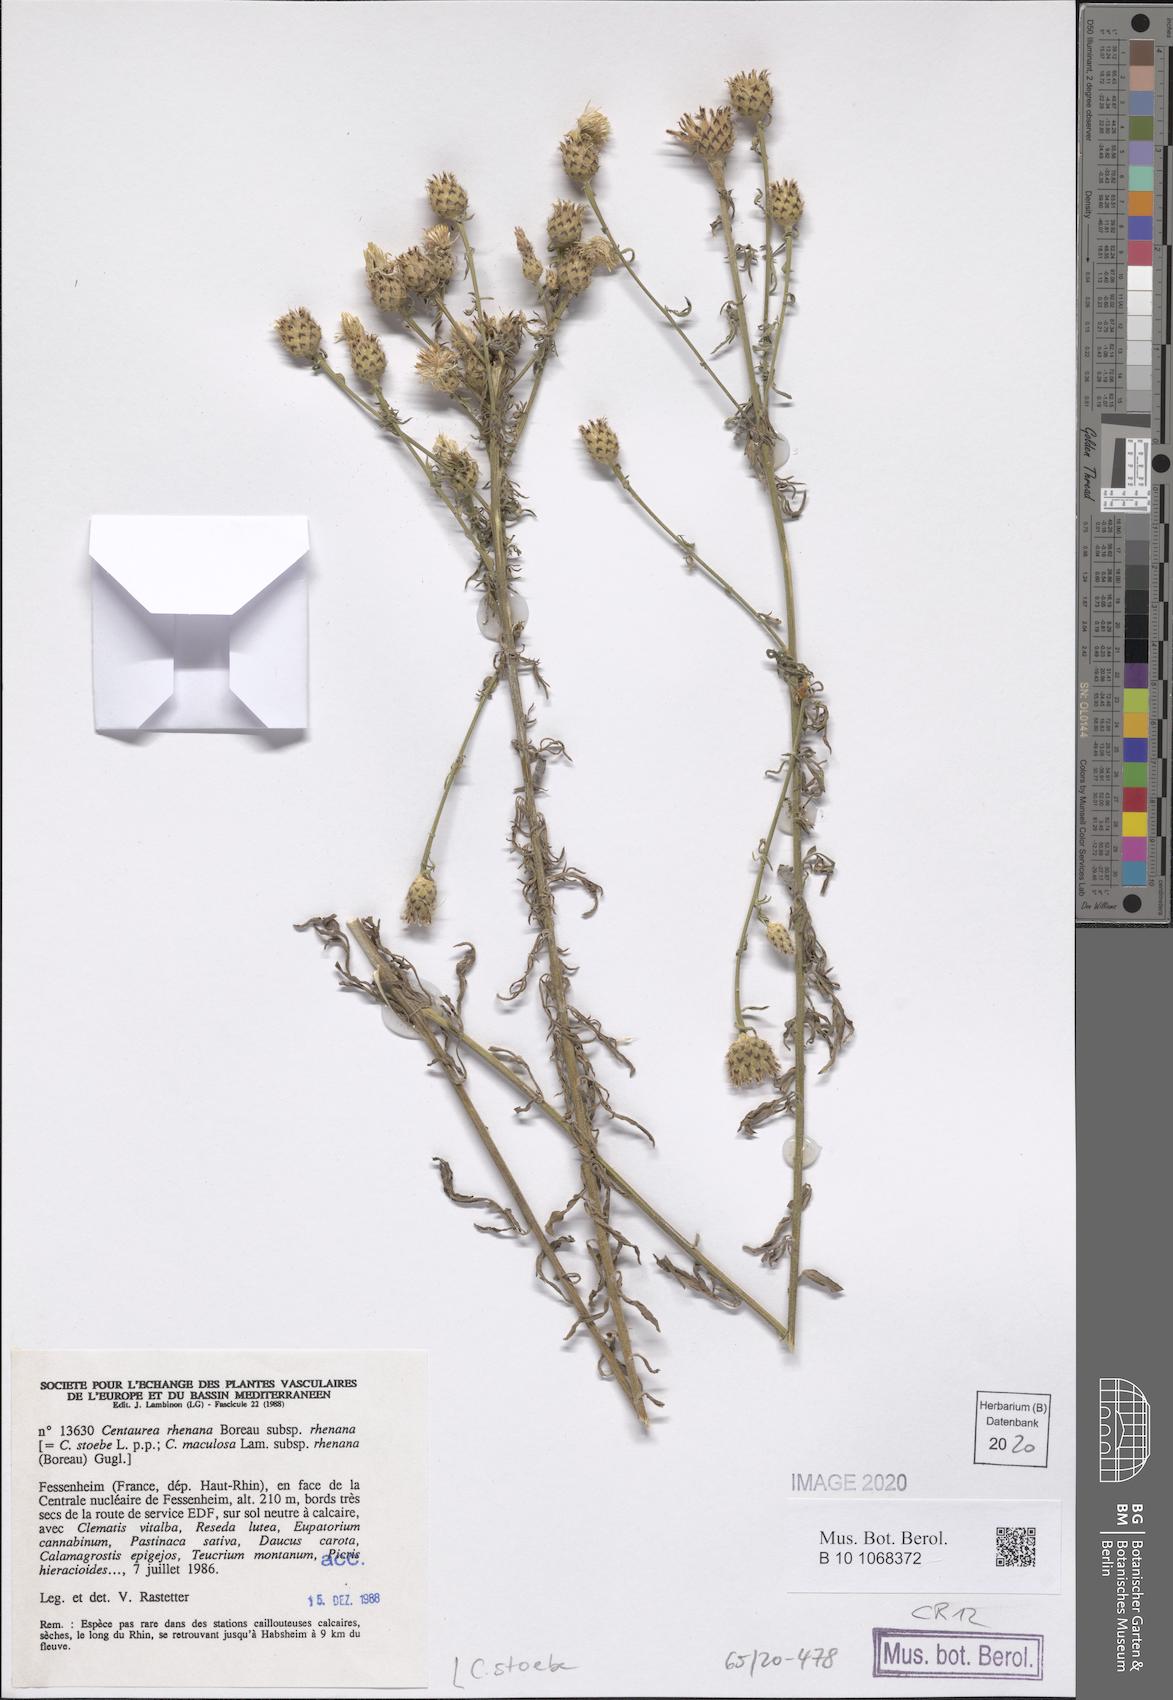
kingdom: Plantae
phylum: Tracheophyta
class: Magnoliopsida
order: Asterales
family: Asteraceae
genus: Centaurea
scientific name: Centaurea stoebe
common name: Spotted knapweed
